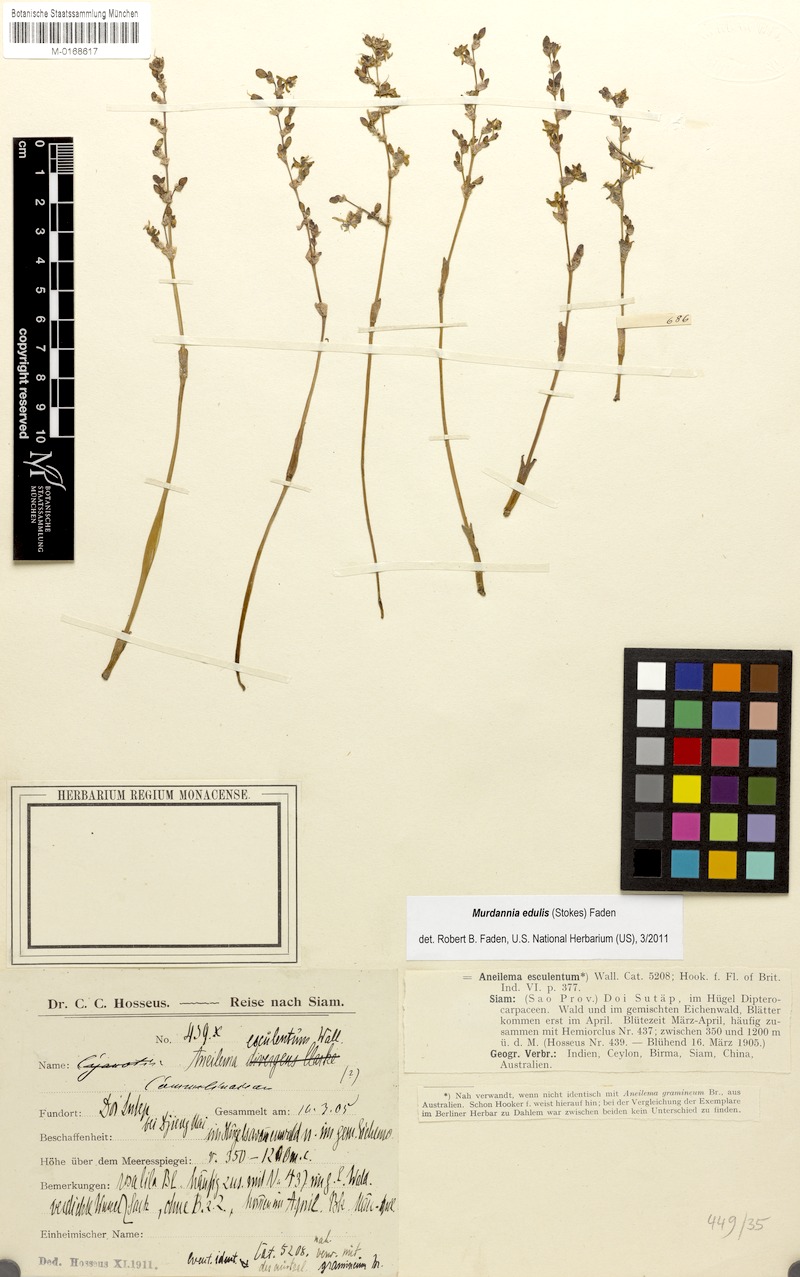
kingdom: Plantae
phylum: Tracheophyta
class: Liliopsida
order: Commelinales
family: Commelinaceae
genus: Murdannia
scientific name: Murdannia edulis
